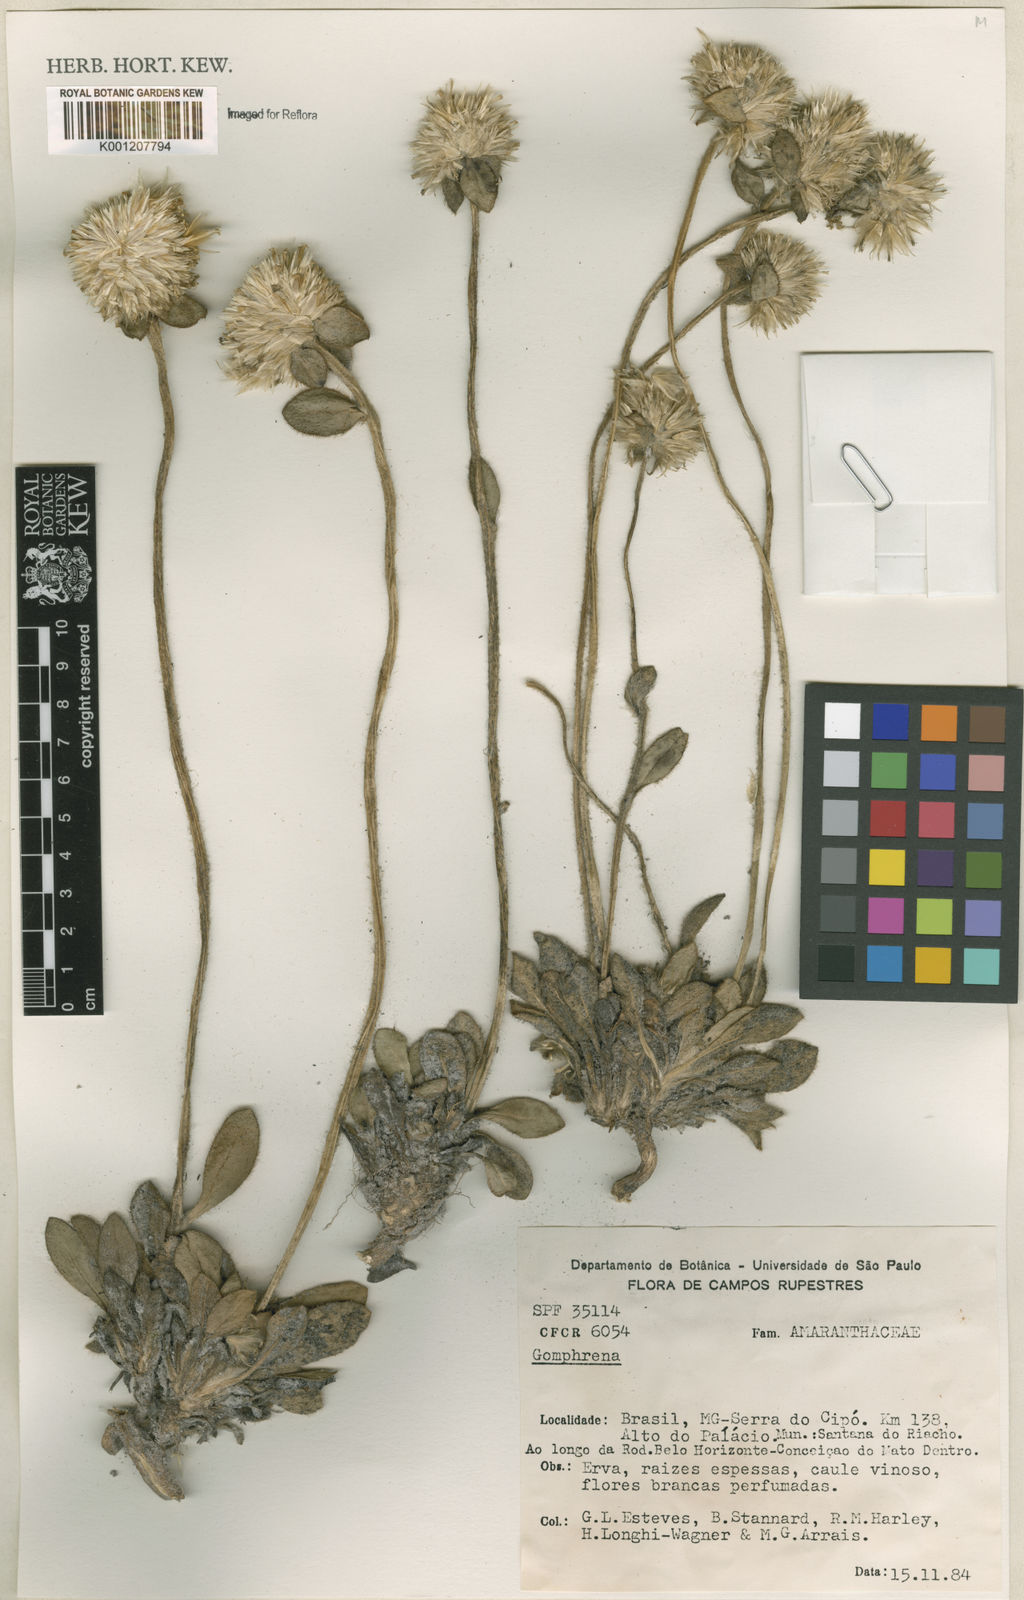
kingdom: Plantae
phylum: Tracheophyta
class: Magnoliopsida
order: Caryophyllales
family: Amaranthaceae
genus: Gomphrena
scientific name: Gomphrena
